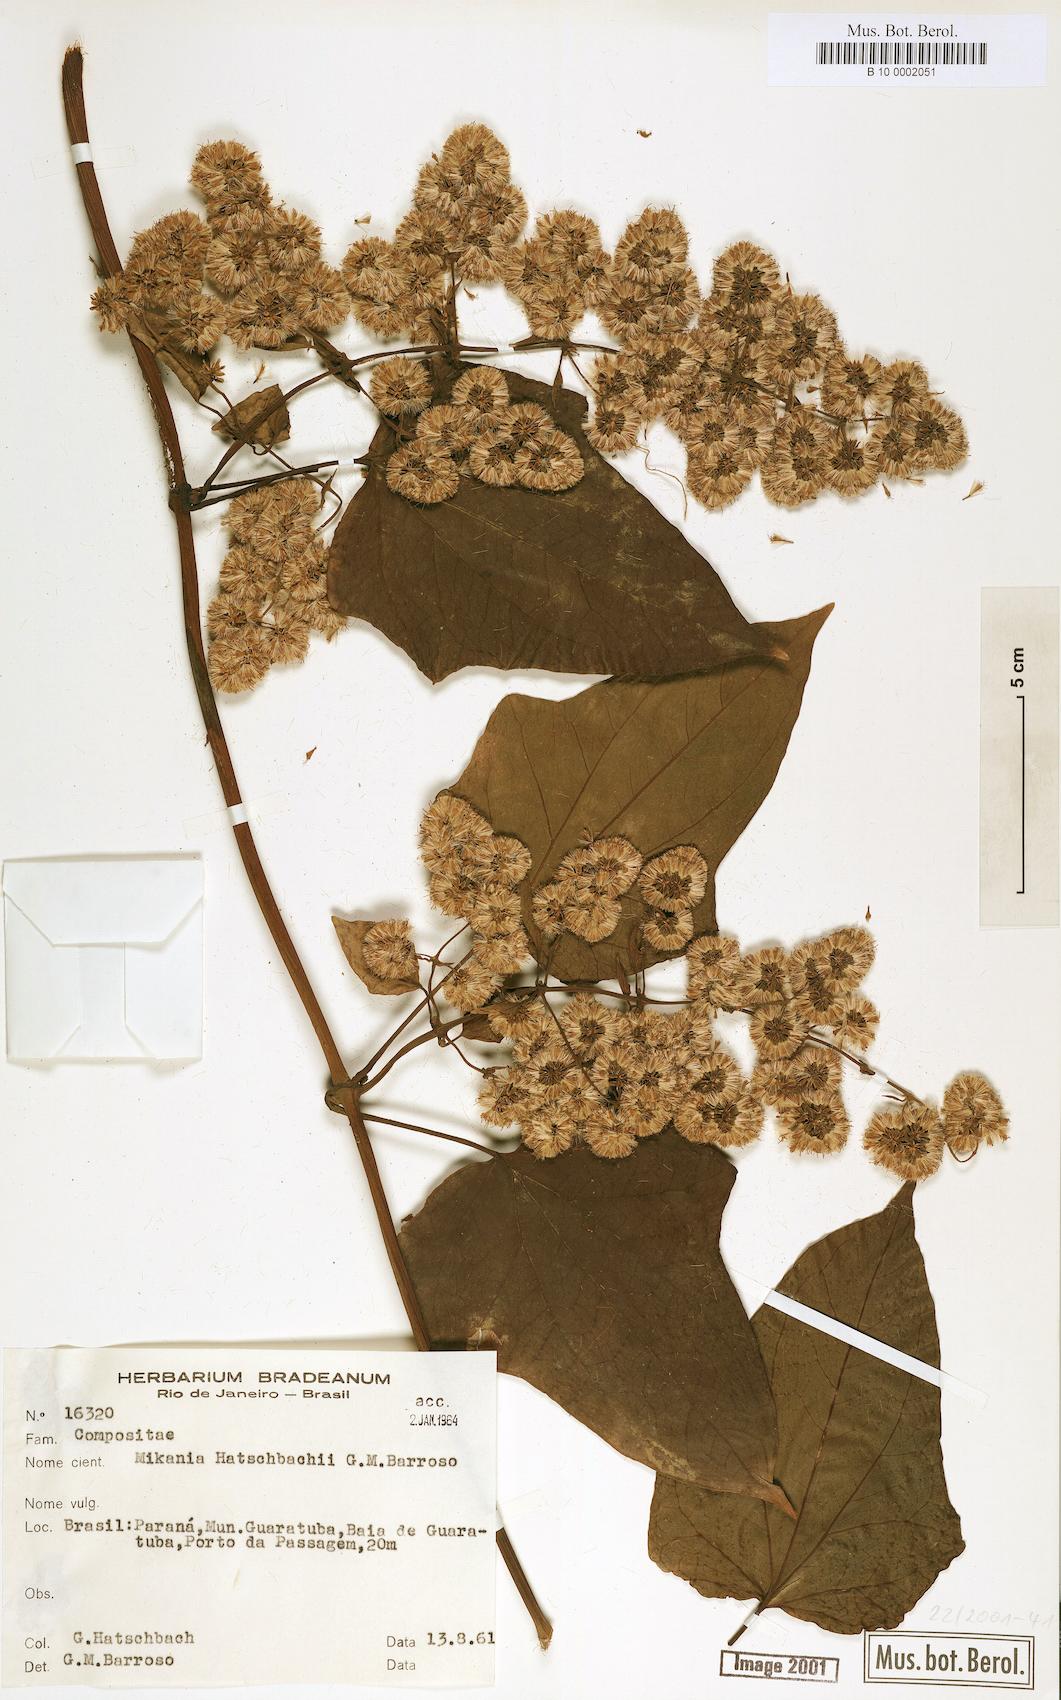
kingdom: Plantae
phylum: Tracheophyta
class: Magnoliopsida
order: Asterales
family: Asteraceae
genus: Mikania
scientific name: Mikania glomerata
